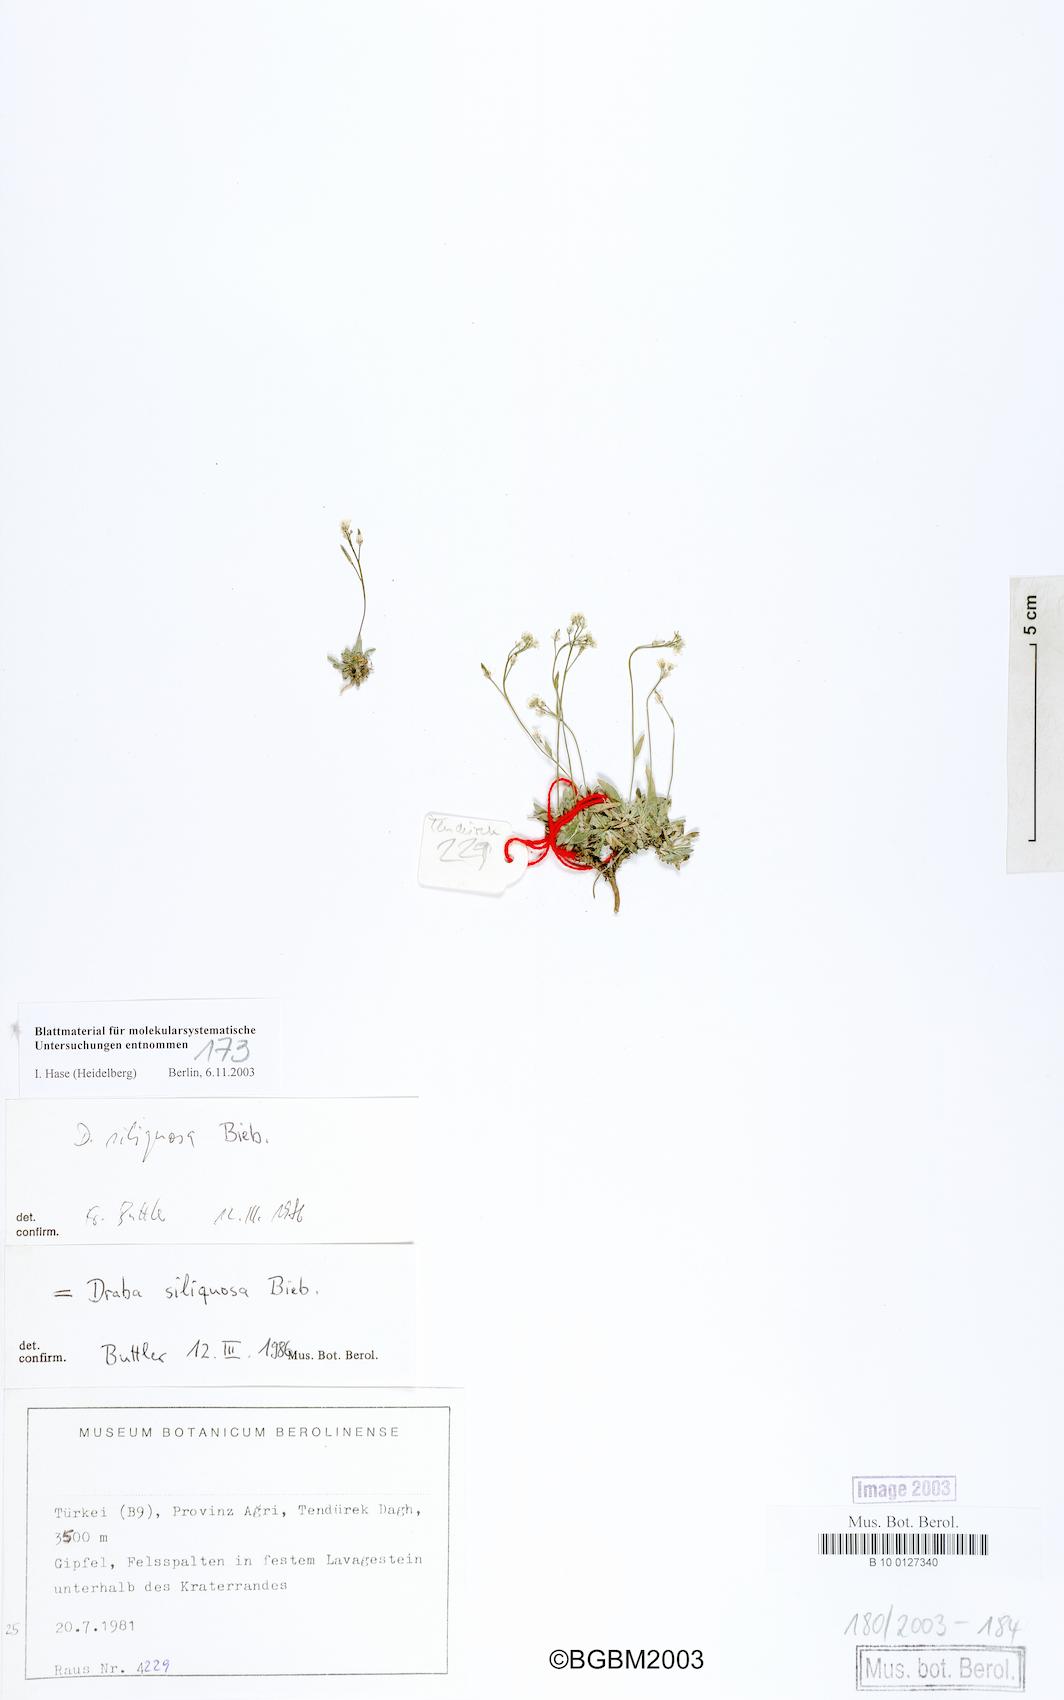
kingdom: Plantae
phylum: Tracheophyta
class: Magnoliopsida
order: Brassicales
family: Brassicaceae
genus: Draba
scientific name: Draba siliquosa
